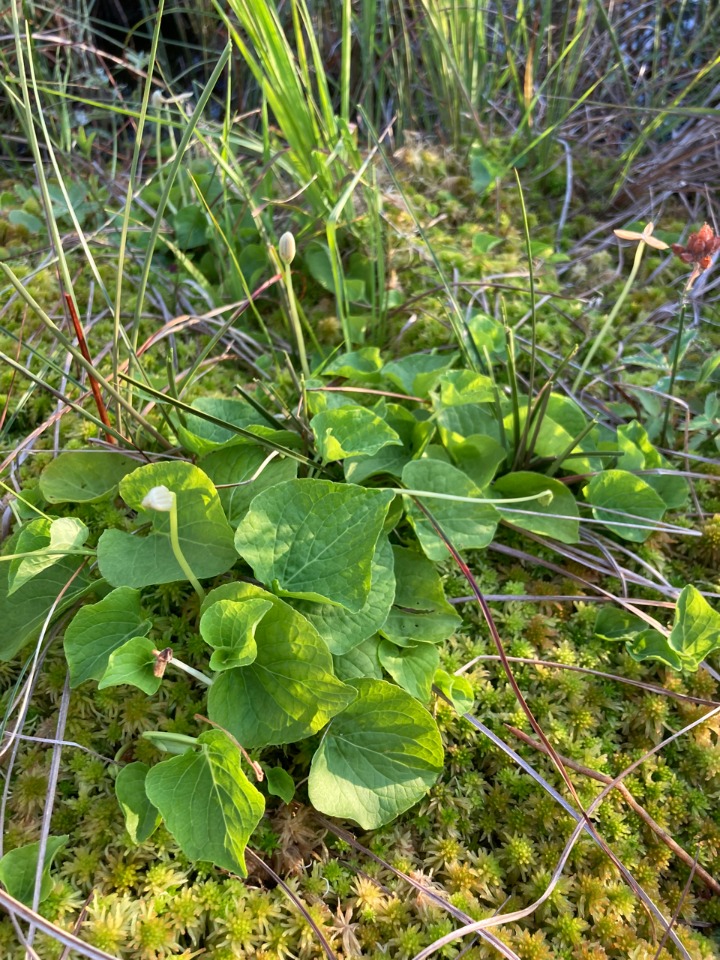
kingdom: Plantae
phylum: Tracheophyta
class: Magnoliopsida
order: Malpighiales
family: Violaceae
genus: Viola
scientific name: Viola palustris
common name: Eng-viol
